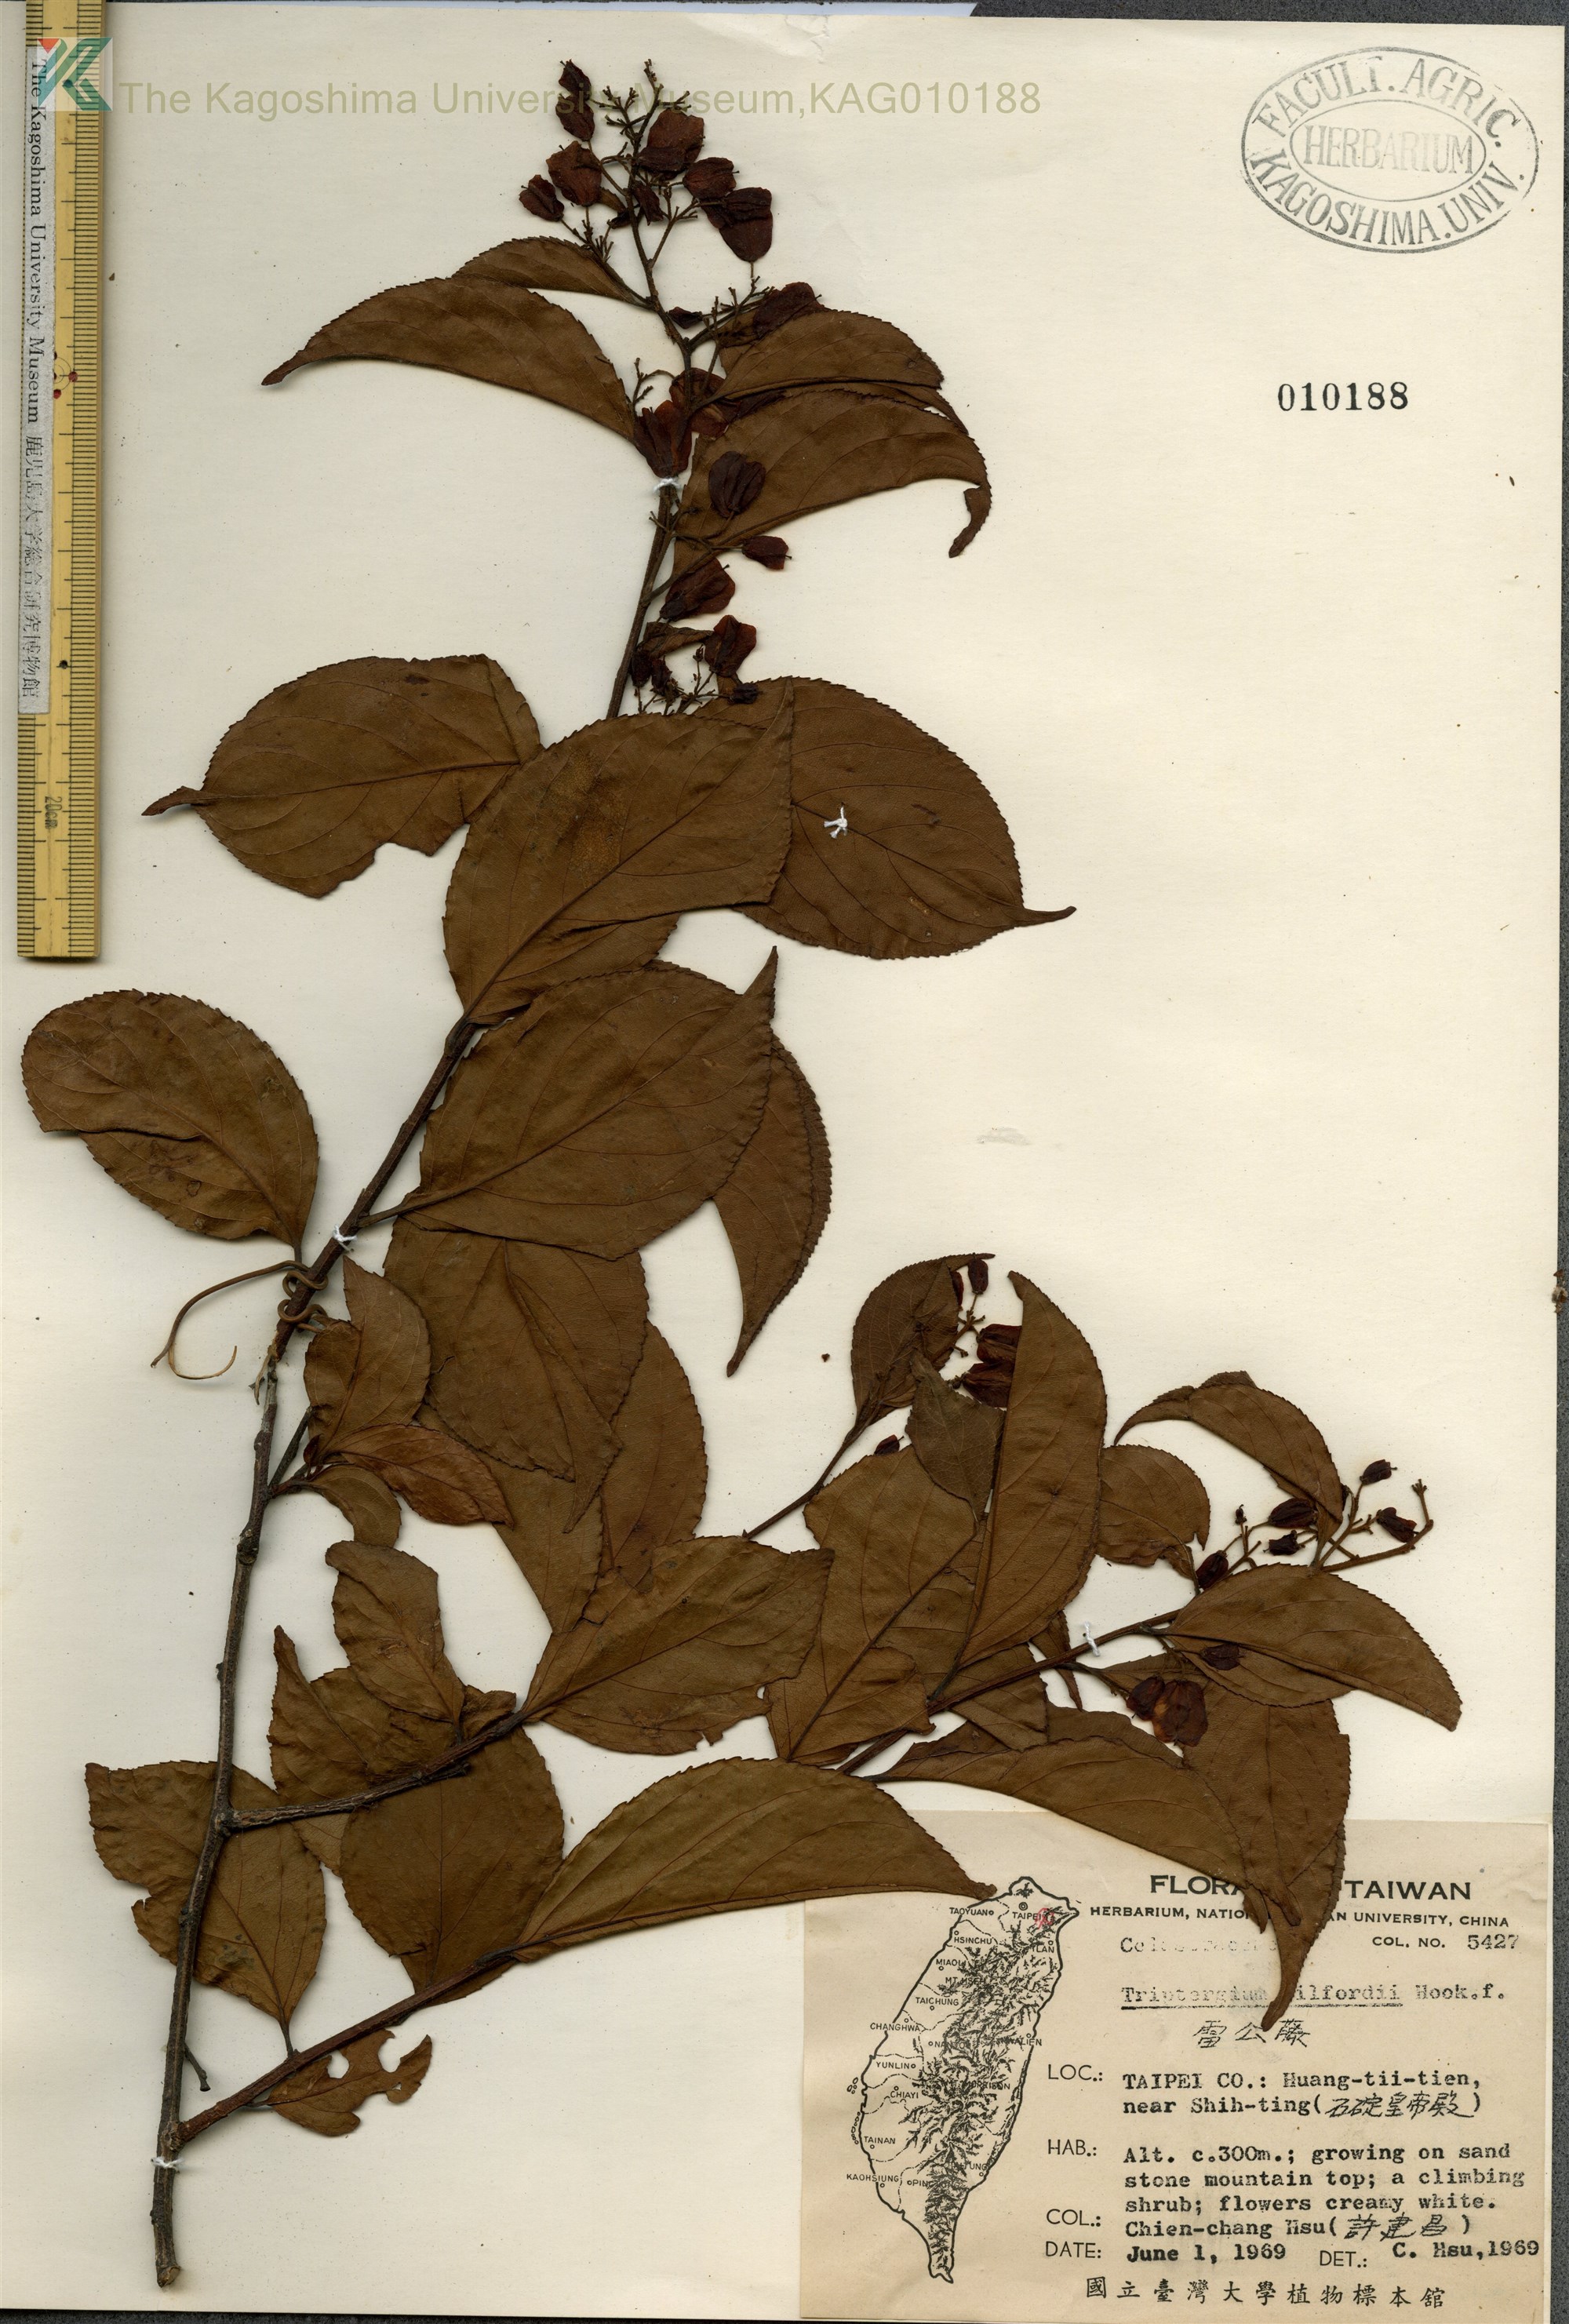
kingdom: Plantae
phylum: Tracheophyta
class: Magnoliopsida
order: Celastrales
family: Celastraceae
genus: Tripterygium
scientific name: Tripterygium wilfordii
